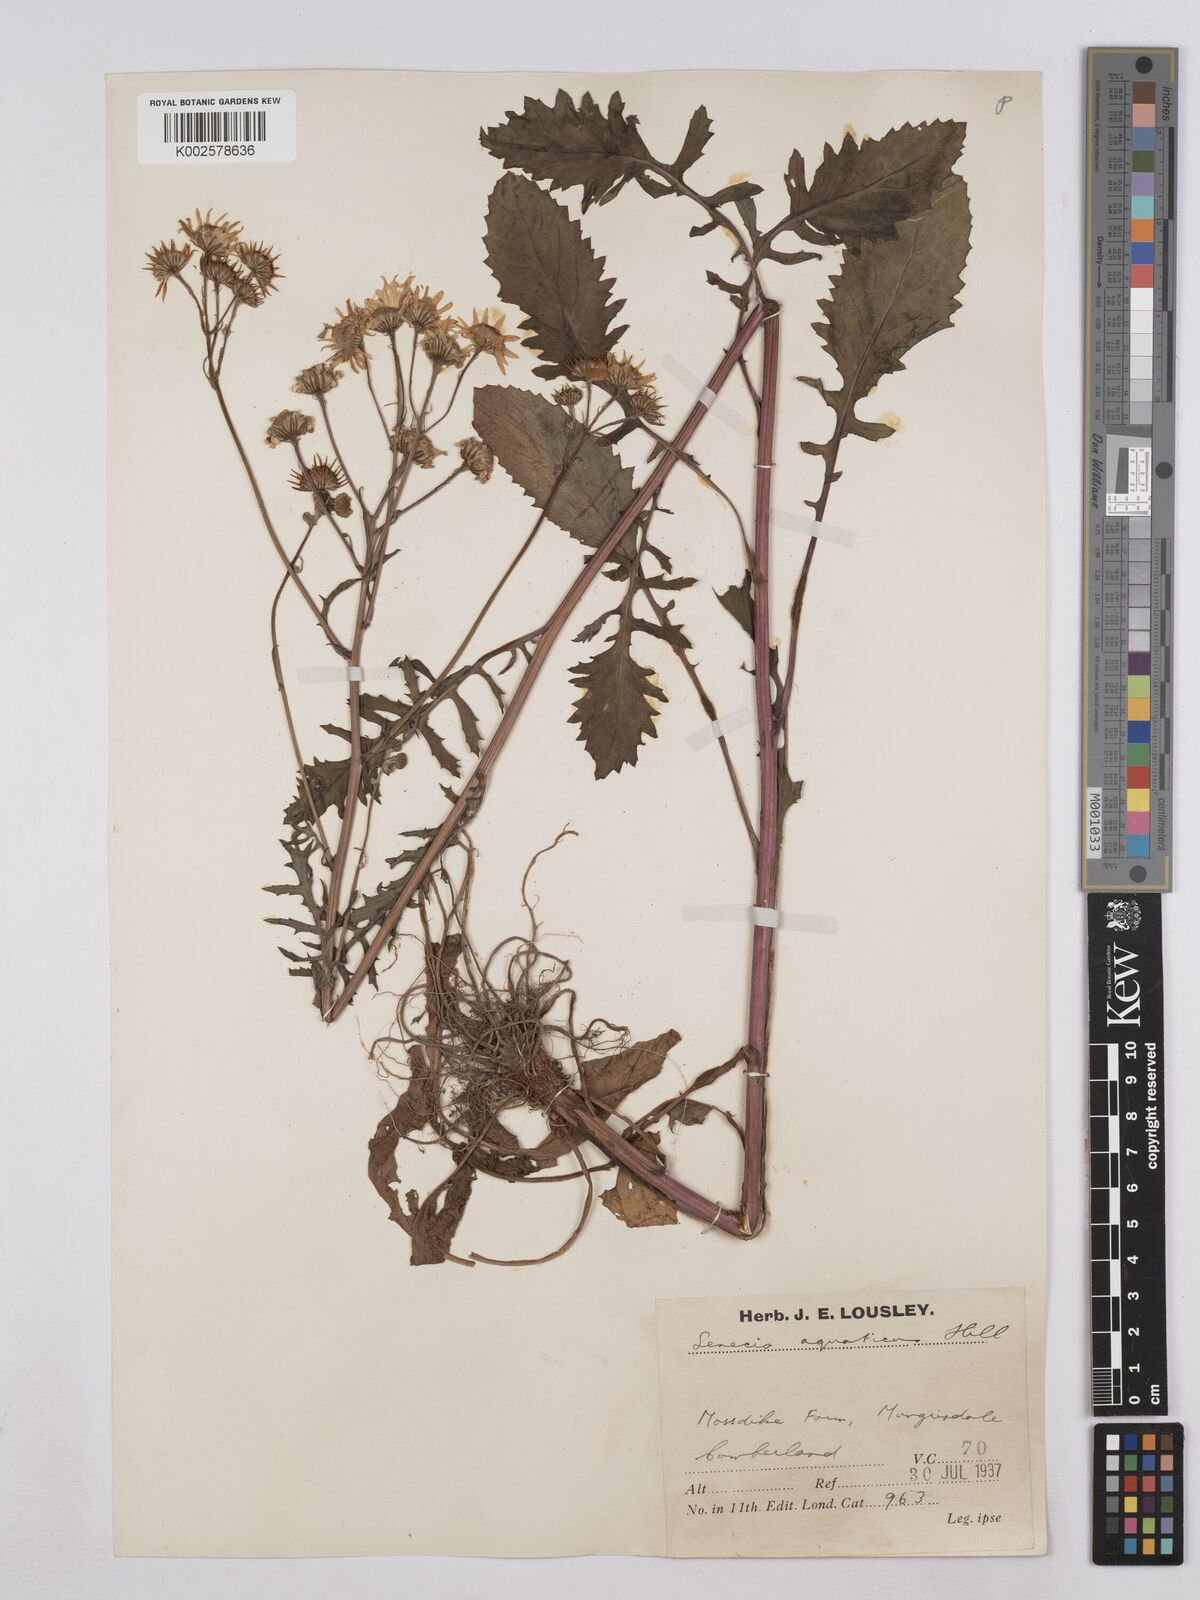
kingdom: Plantae
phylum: Tracheophyta
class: Magnoliopsida
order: Asterales
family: Asteraceae
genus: Jacobaea
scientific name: Jacobaea aquatica
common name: Water ragwort
